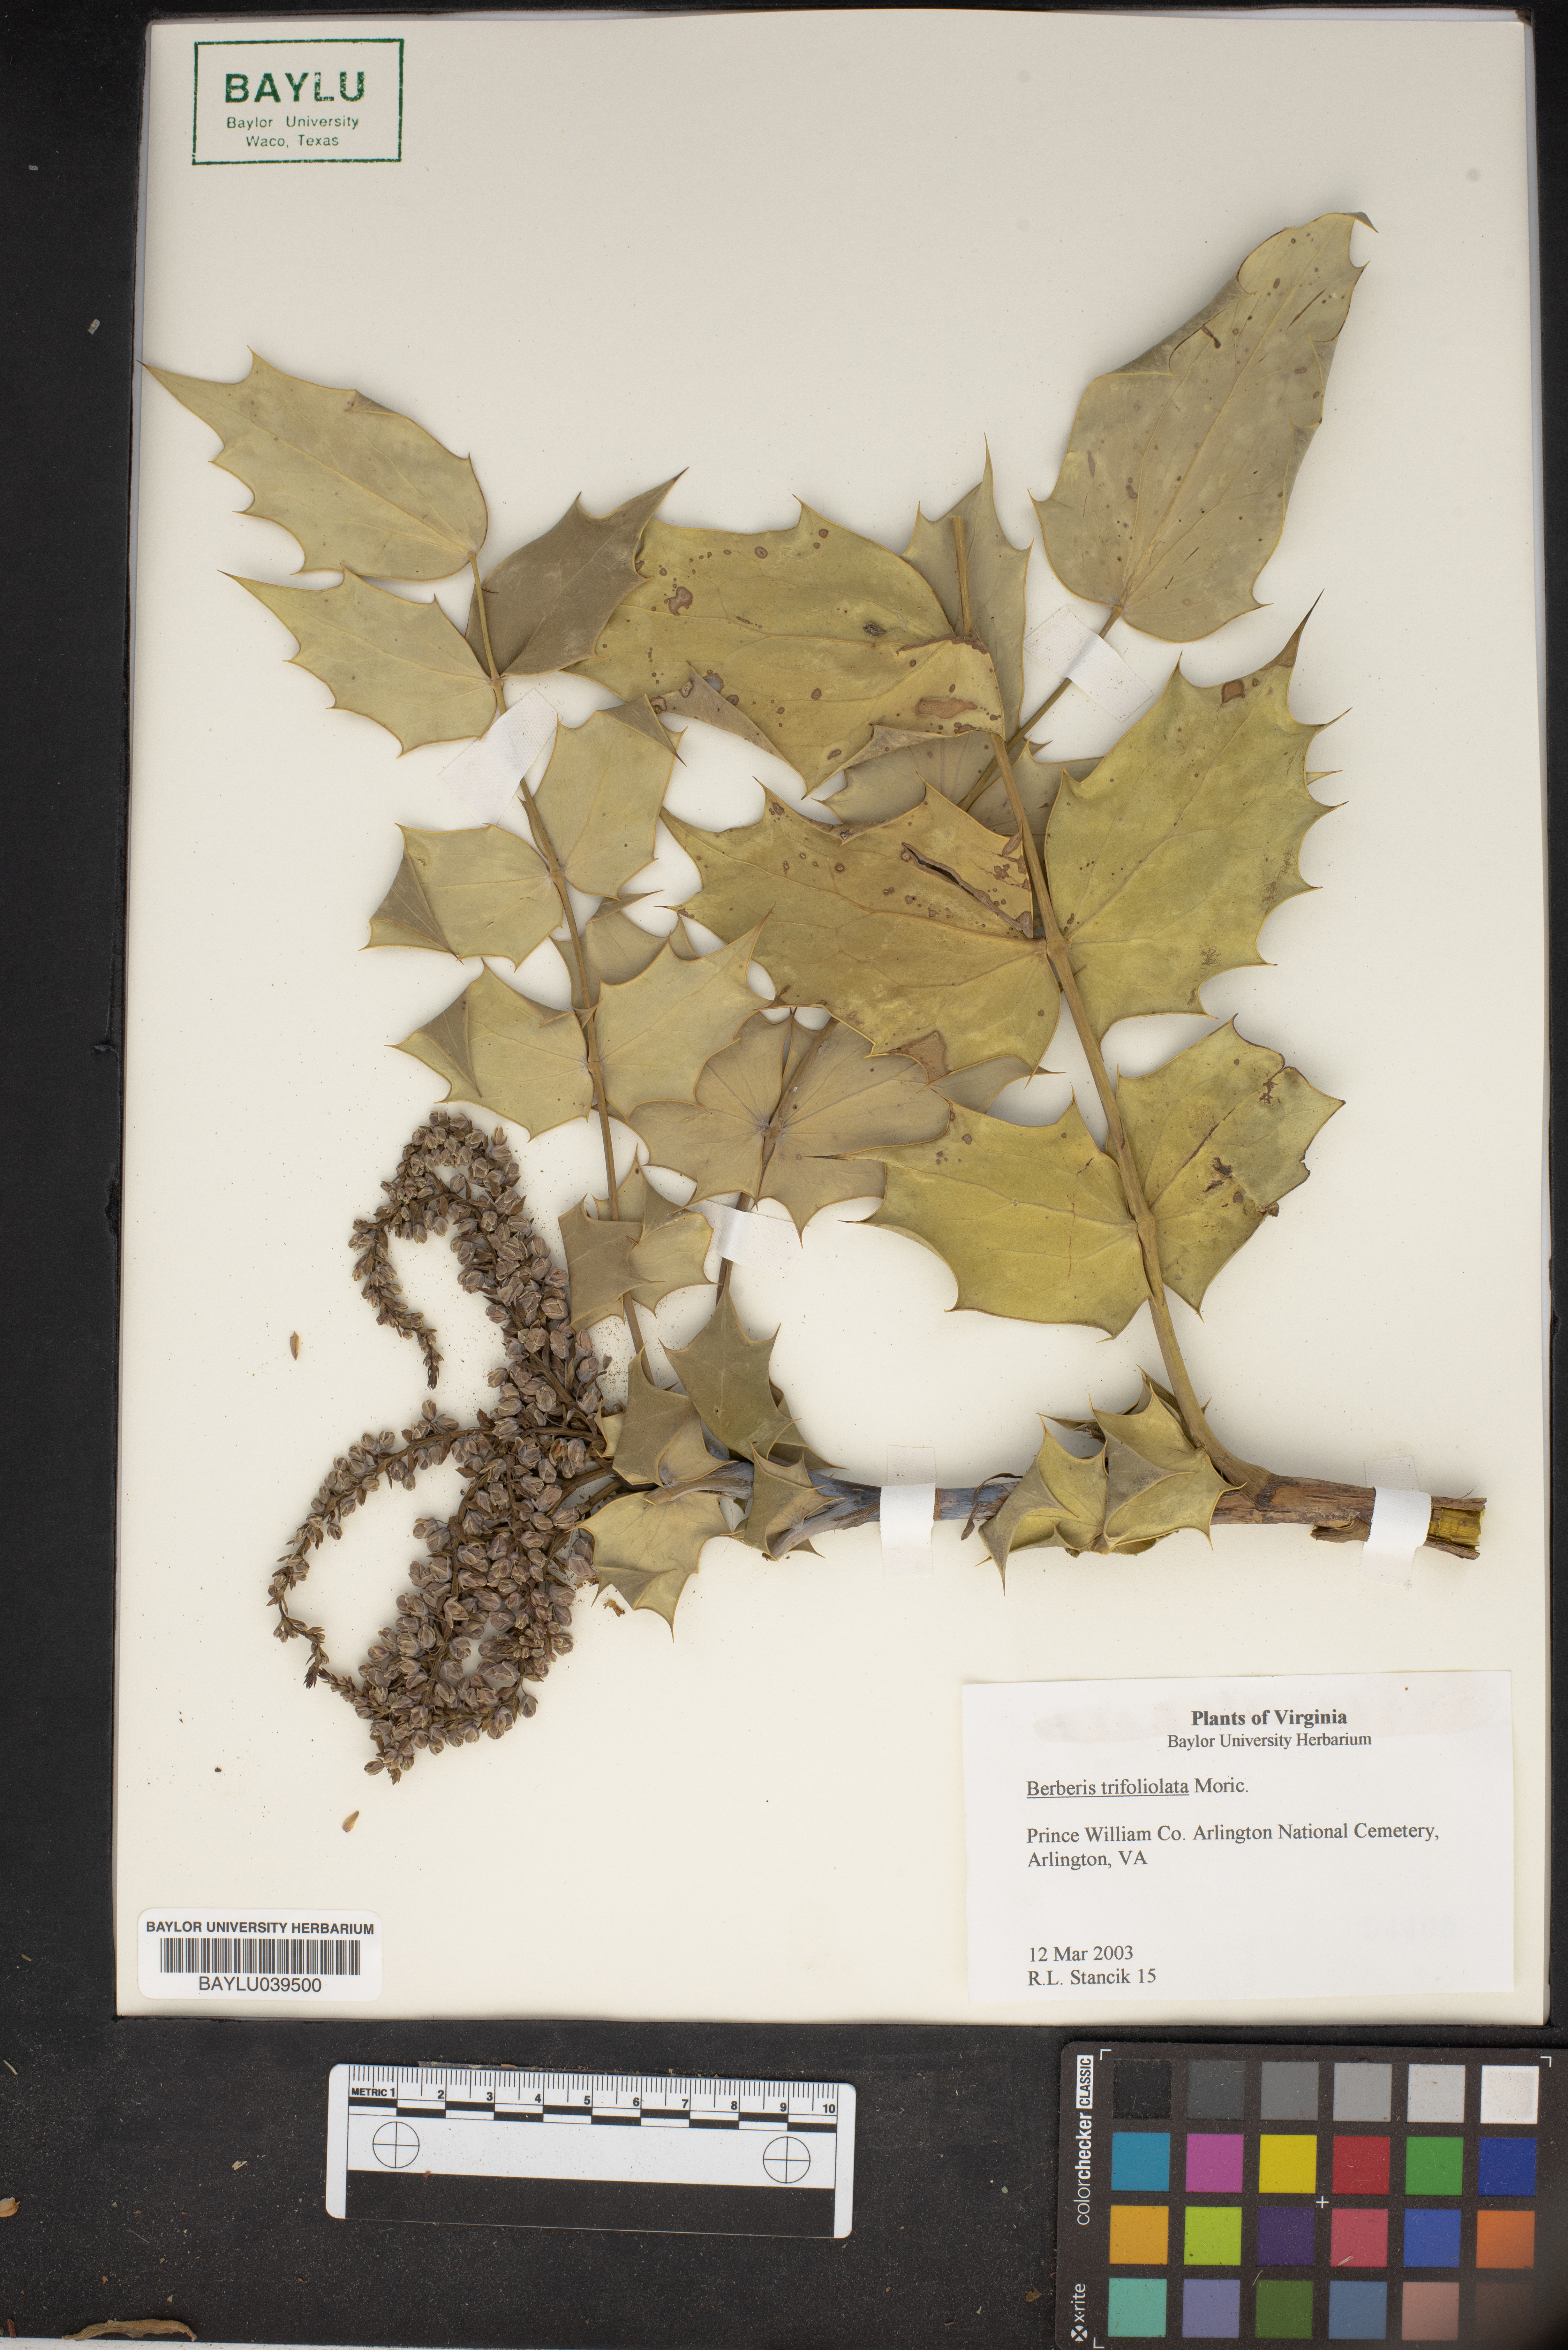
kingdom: Plantae
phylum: Tracheophyta
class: Magnoliopsida
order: Ranunculales
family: Berberidaceae
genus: Alloberberis
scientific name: Alloberberis fremontii
